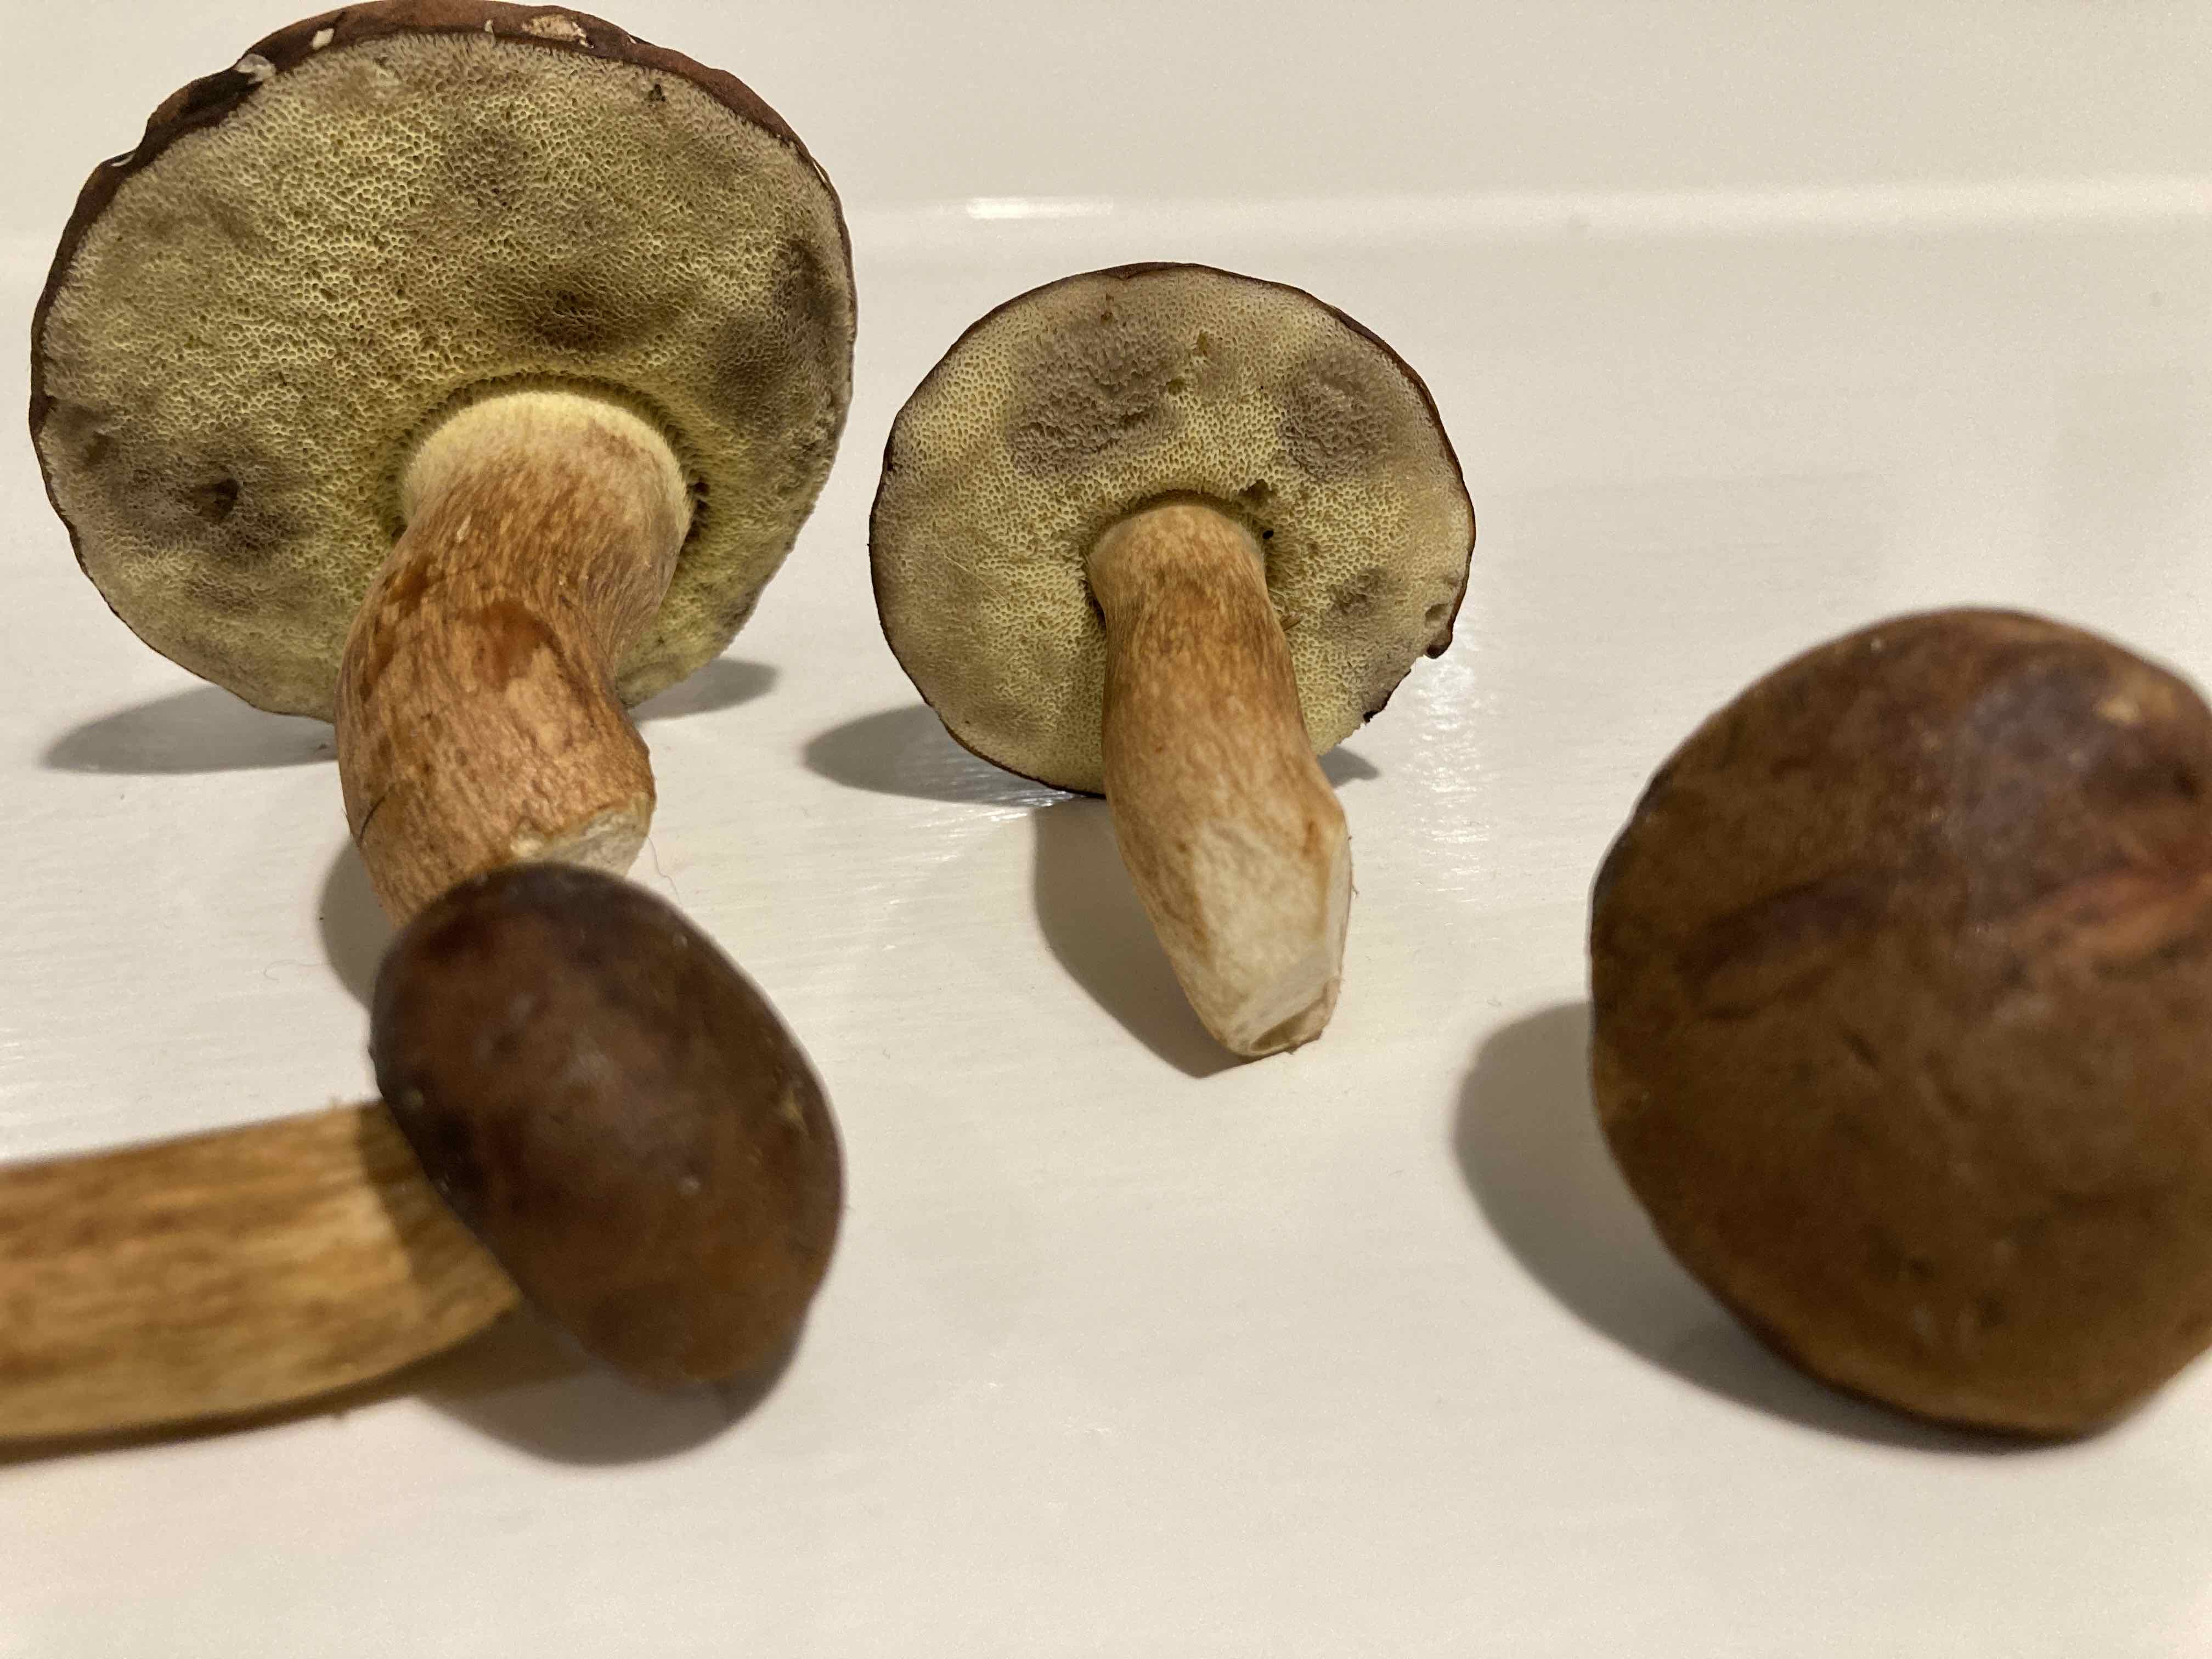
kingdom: Fungi
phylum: Basidiomycota
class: Agaricomycetes
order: Boletales
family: Boletaceae
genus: Imleria
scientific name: Imleria badia
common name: brunstokket rørhat
